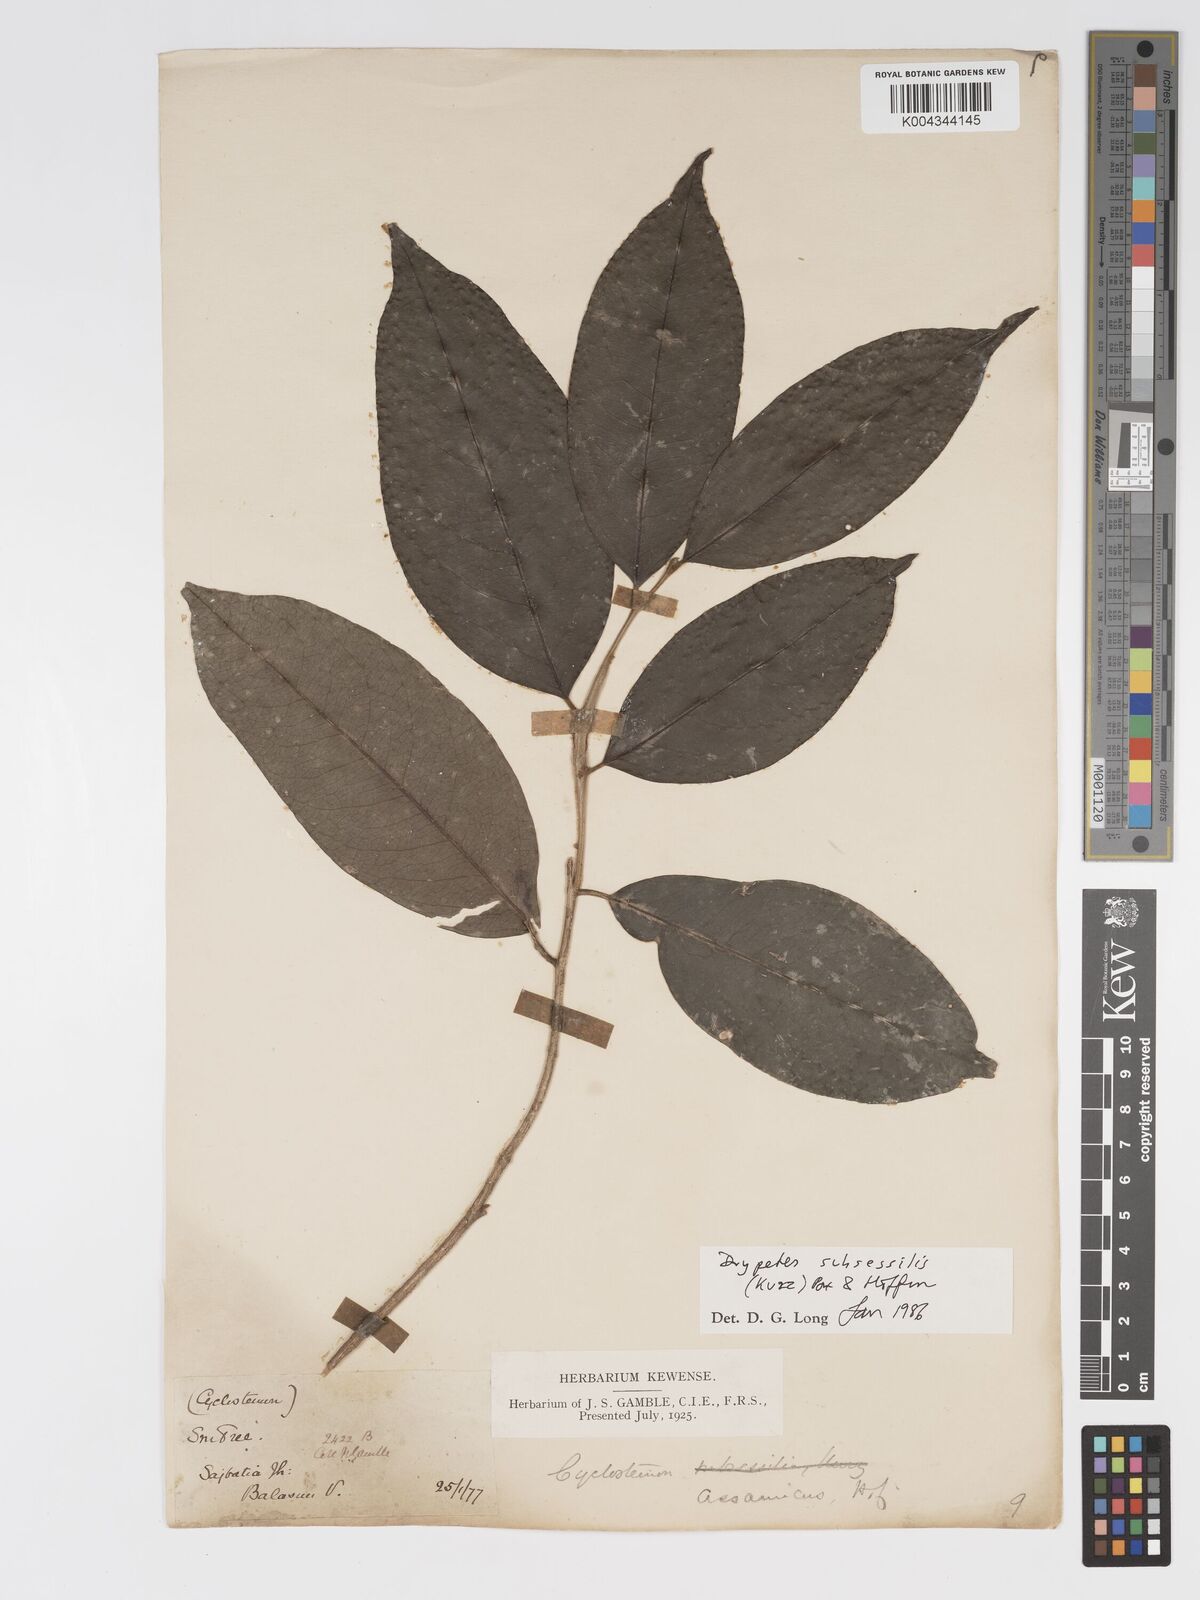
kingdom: Plantae
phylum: Tracheophyta
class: Magnoliopsida
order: Malpighiales
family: Putranjivaceae
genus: Drypetes
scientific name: Drypetes subsessilis
